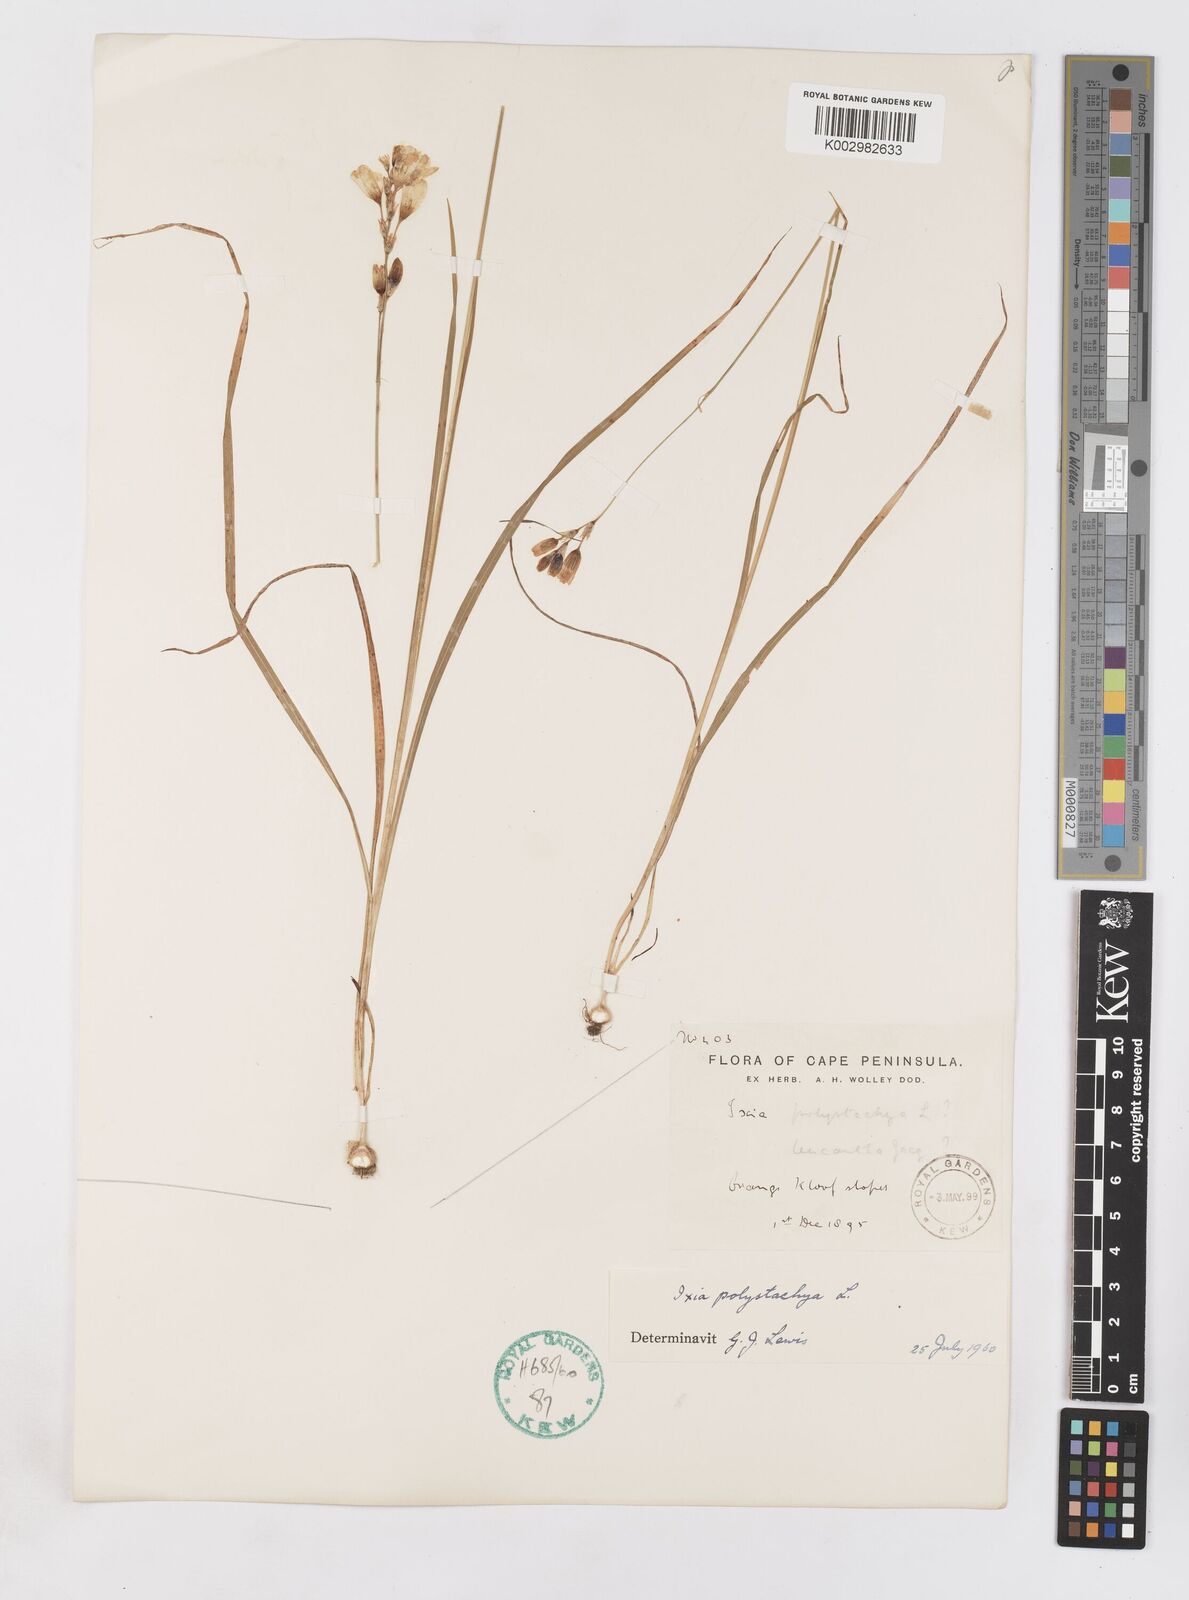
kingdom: Plantae
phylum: Tracheophyta
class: Liliopsida
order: Asparagales
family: Iridaceae
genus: Ixia
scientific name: Ixia polystachya
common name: White-and-yellow-flower cornlily
